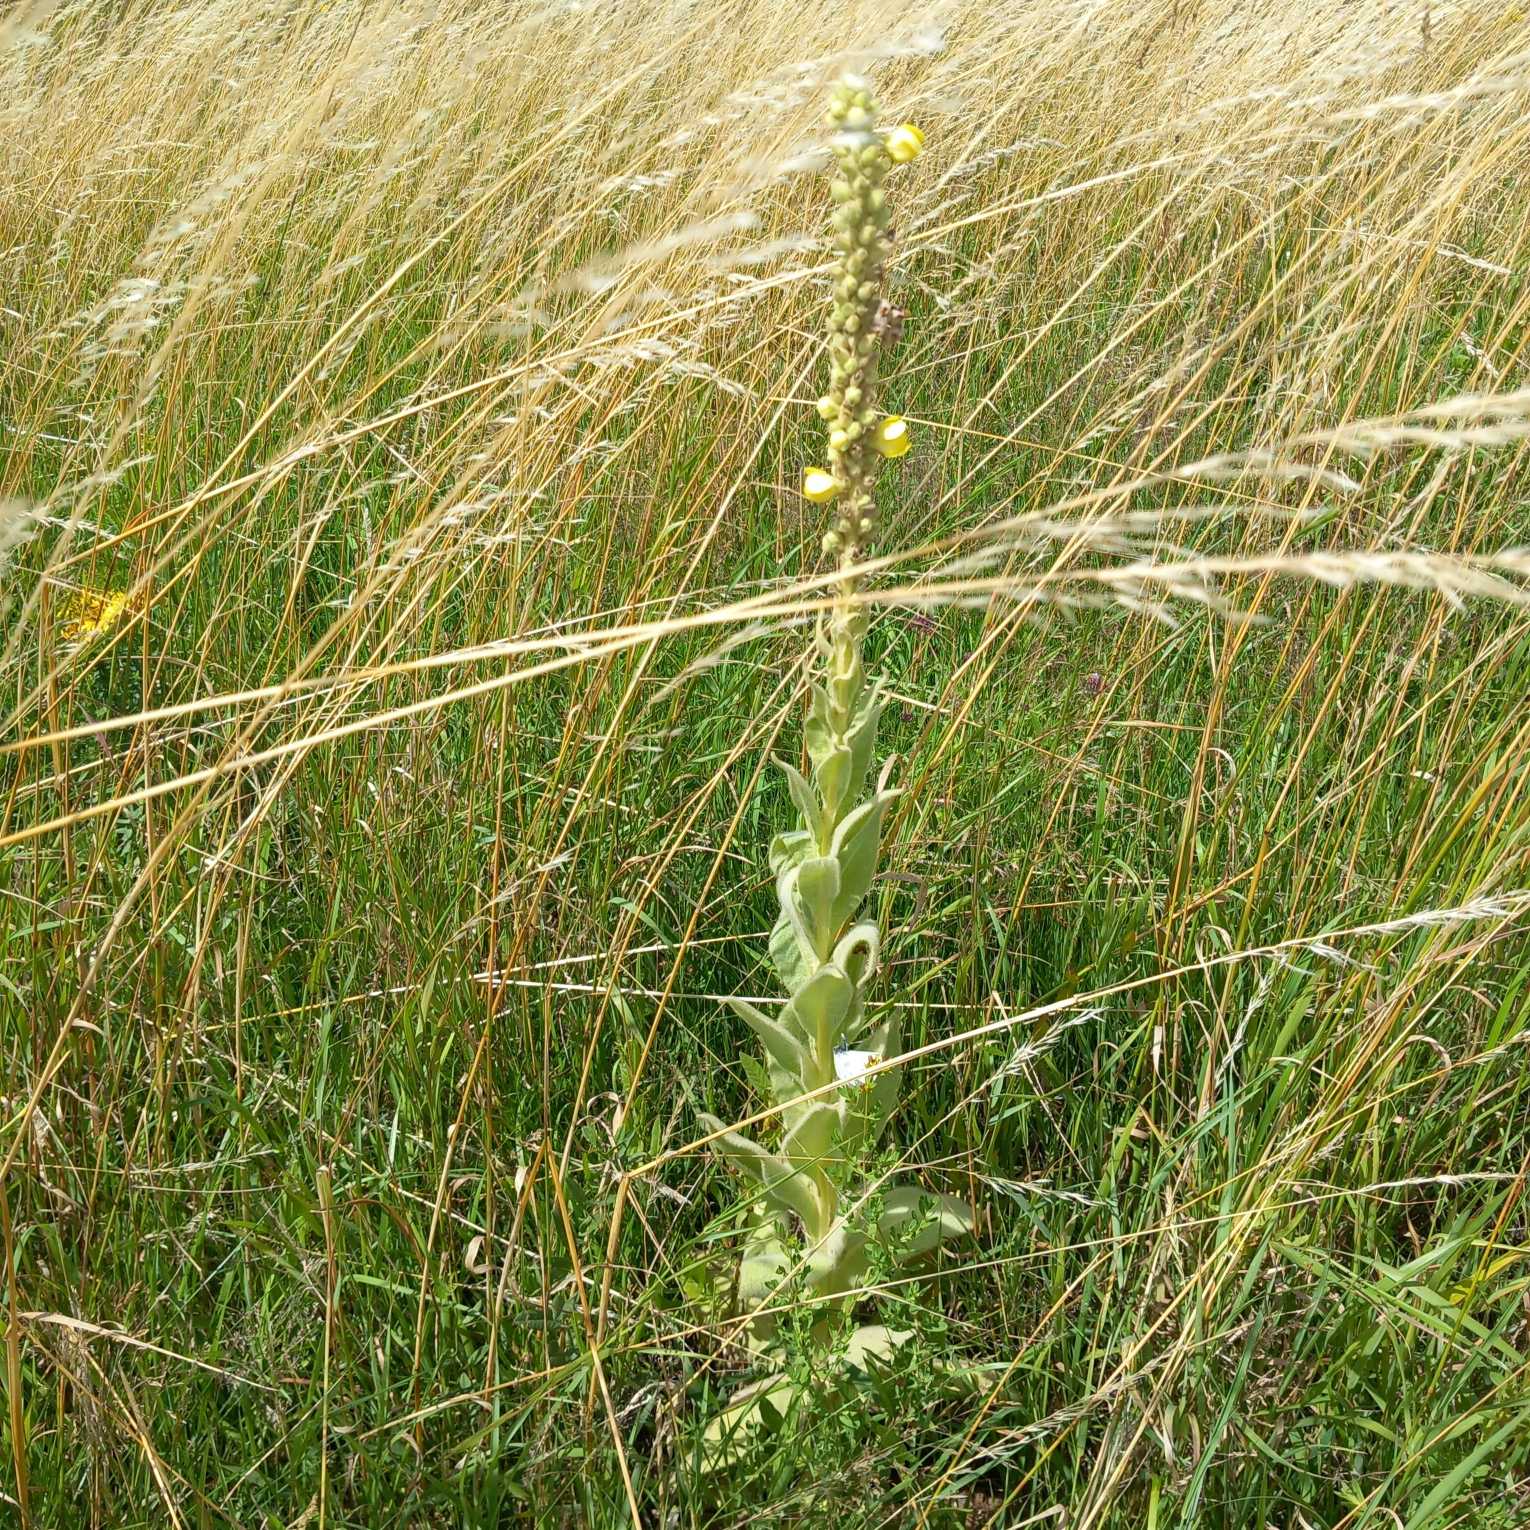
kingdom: Plantae
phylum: Tracheophyta
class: Magnoliopsida
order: Lamiales
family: Scrophulariaceae
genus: Verbascum
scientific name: Verbascum densiflorum
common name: Uldbladet kongelys
